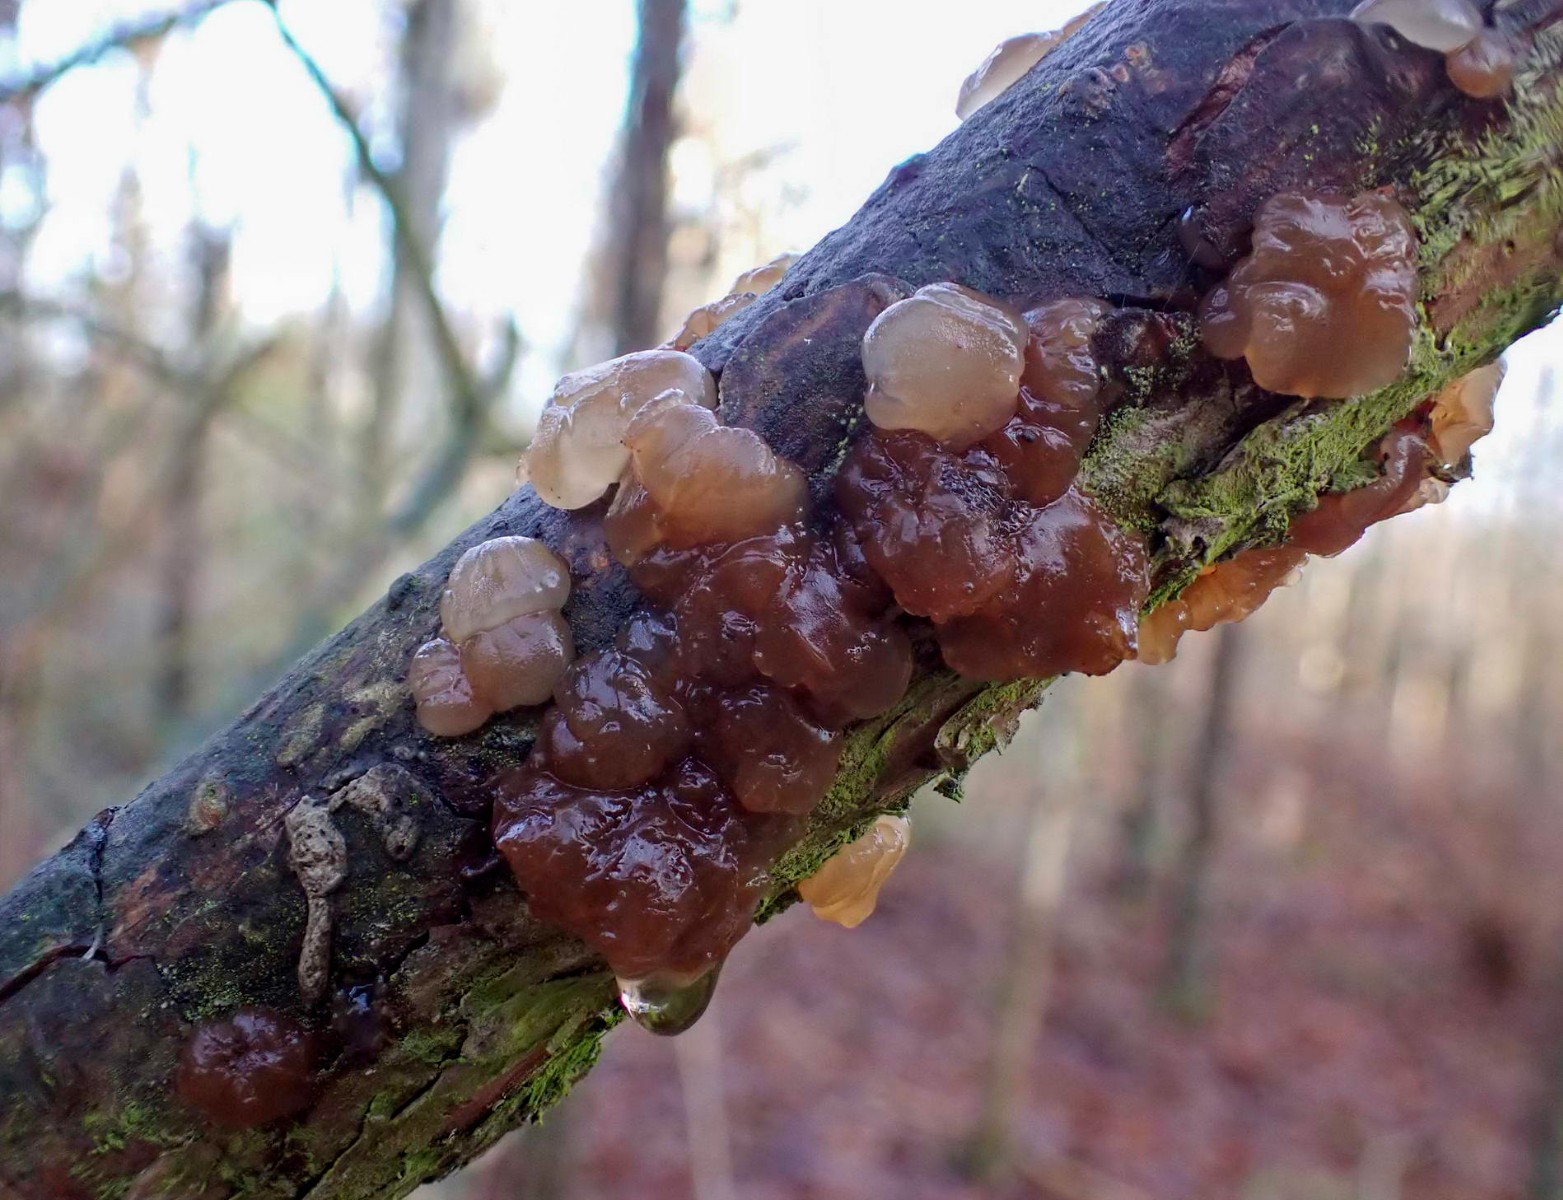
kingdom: Fungi
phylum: Basidiomycota
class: Agaricomycetes
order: Auriculariales
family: Auriculariaceae
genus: Exidia
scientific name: Exidia saccharina
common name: kandis-bævretop
